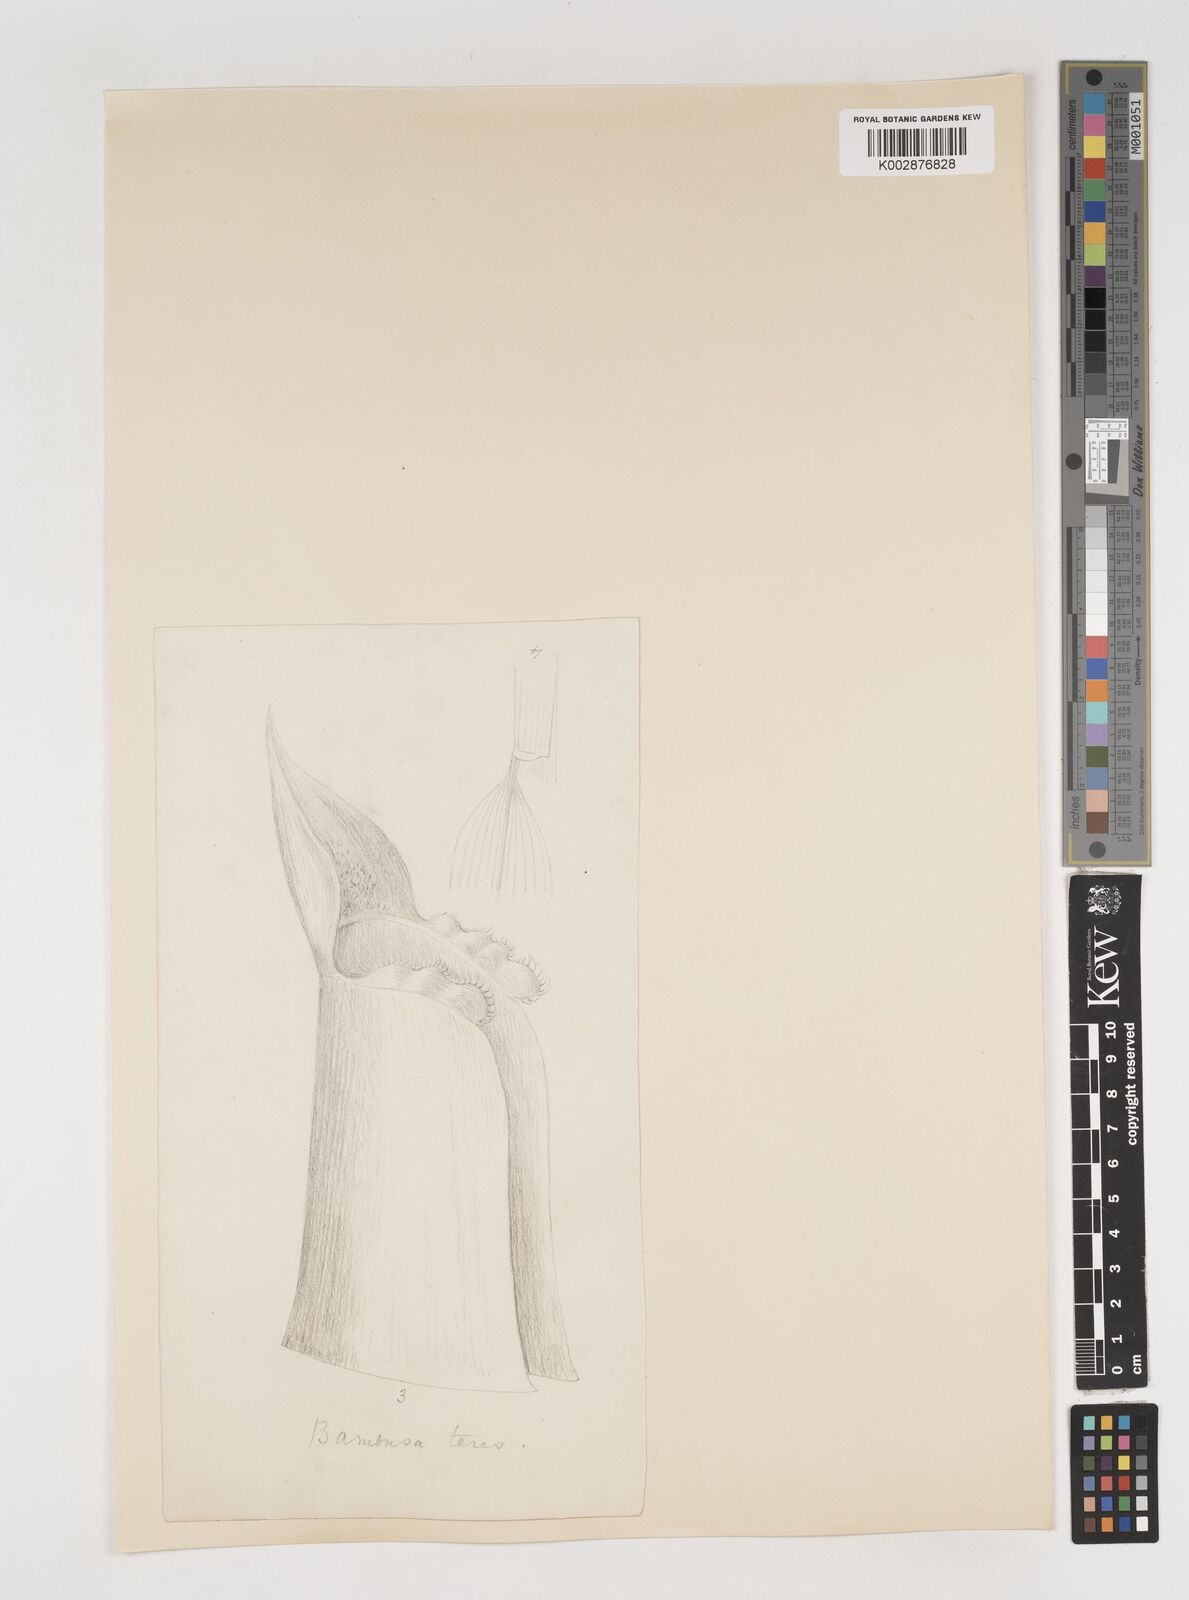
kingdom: Plantae
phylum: Tracheophyta
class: Liliopsida
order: Poales
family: Poaceae
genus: Bambusa
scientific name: Bambusa teres
